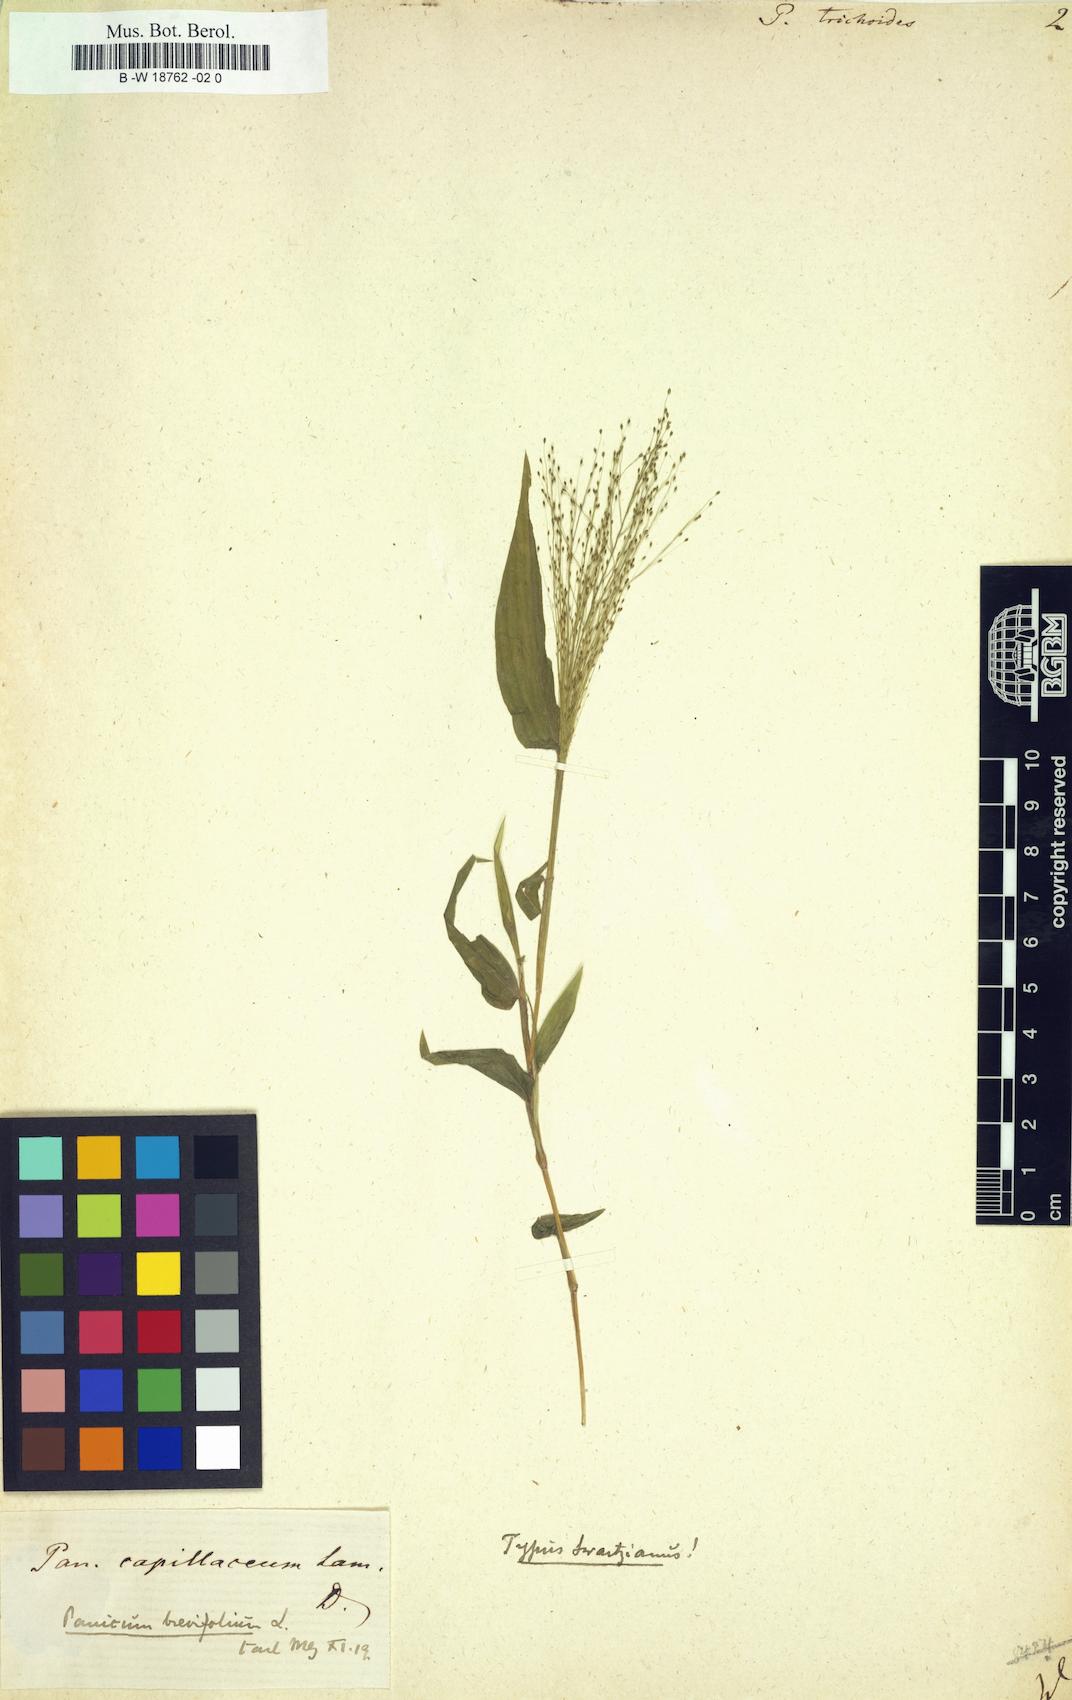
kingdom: Plantae
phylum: Tracheophyta
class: Liliopsida
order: Poales
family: Poaceae
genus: Panicum
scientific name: Panicum trichoides
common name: Tickle grass
